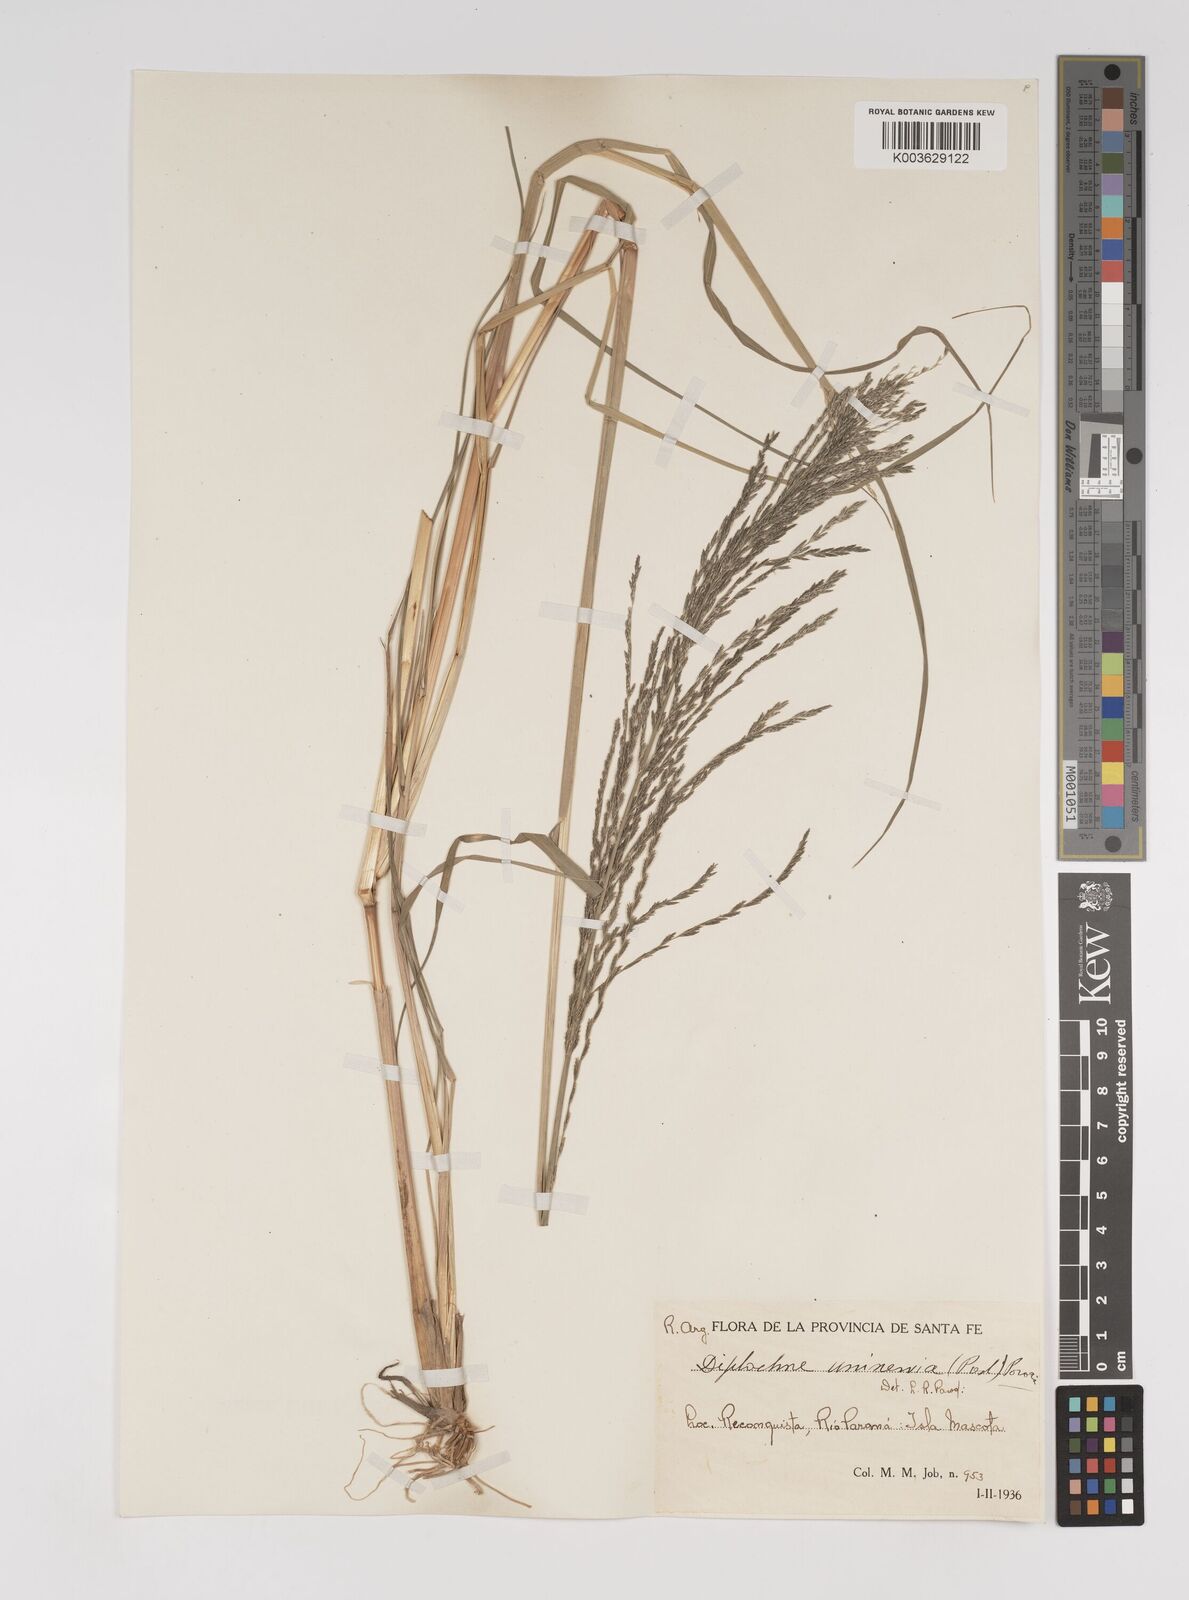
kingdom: Plantae
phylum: Tracheophyta
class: Liliopsida
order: Poales
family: Poaceae
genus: Diplachne
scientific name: Diplachne fusca
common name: Brown beetle grass
